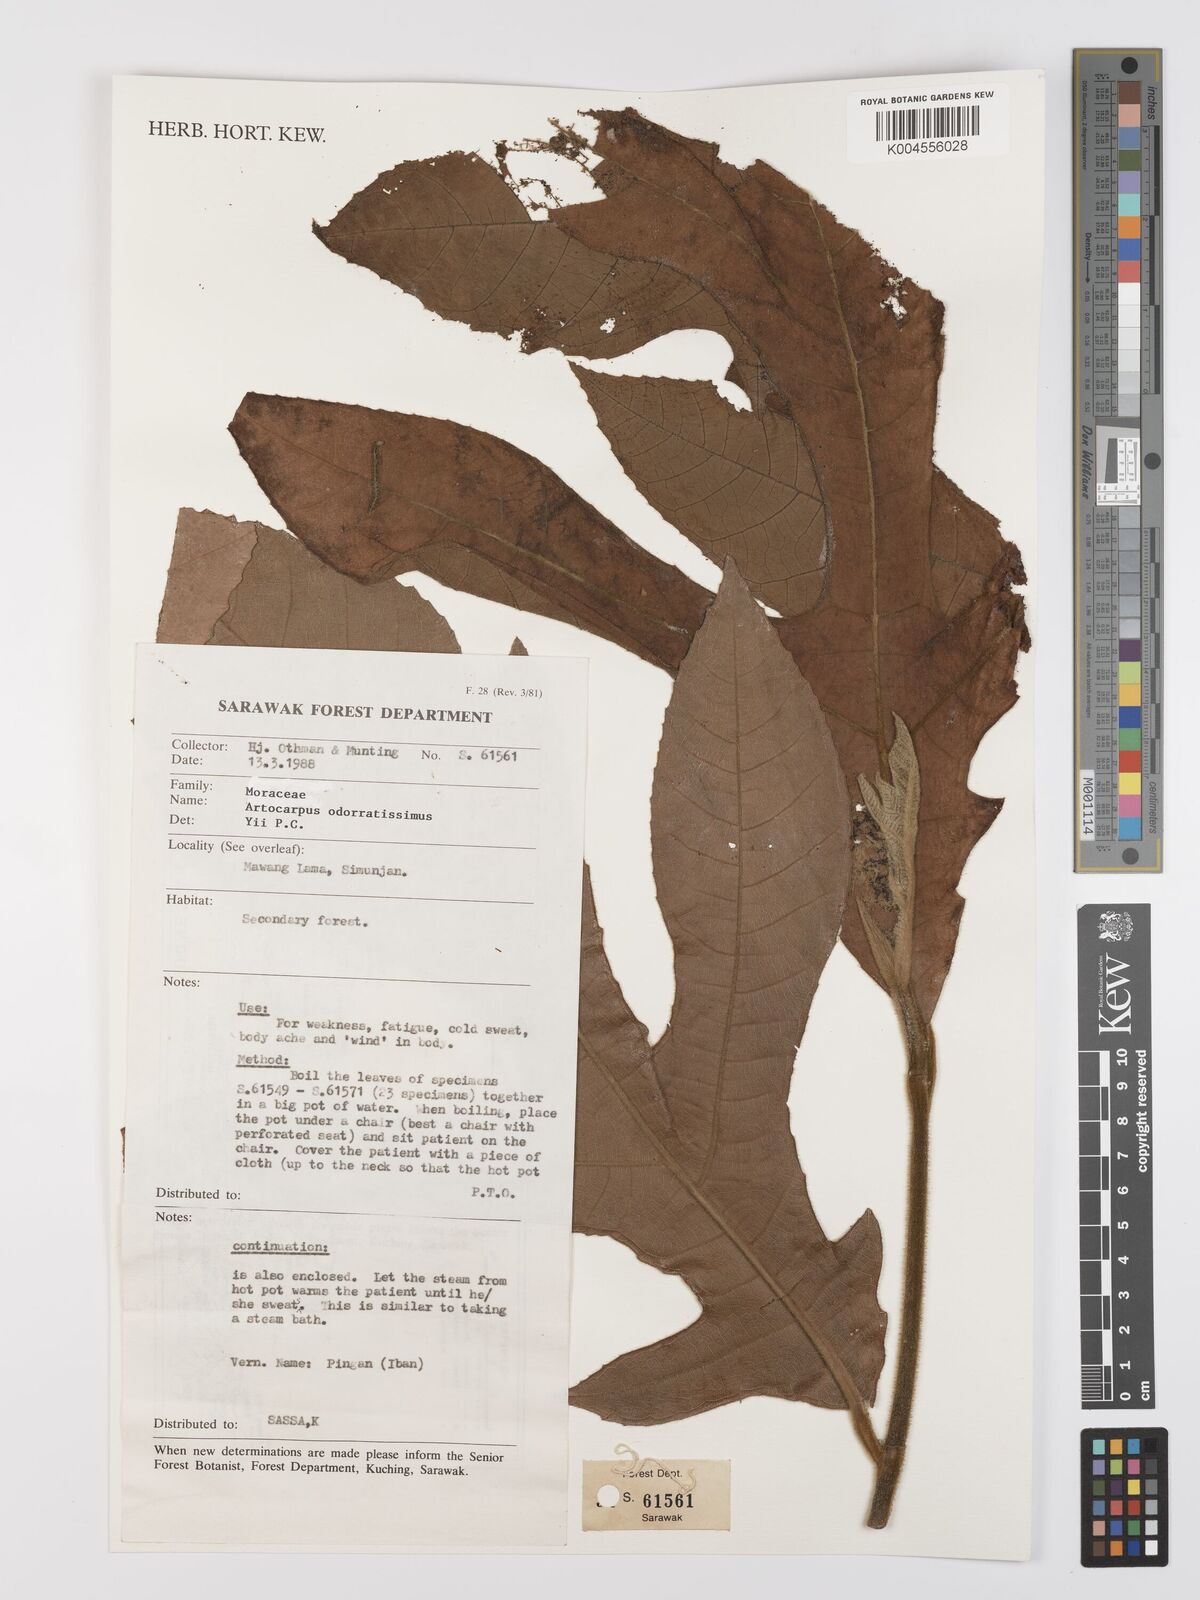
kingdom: Plantae
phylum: Tracheophyta
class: Magnoliopsida
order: Rosales
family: Moraceae
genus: Artocarpus
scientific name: Artocarpus odoratissimus
